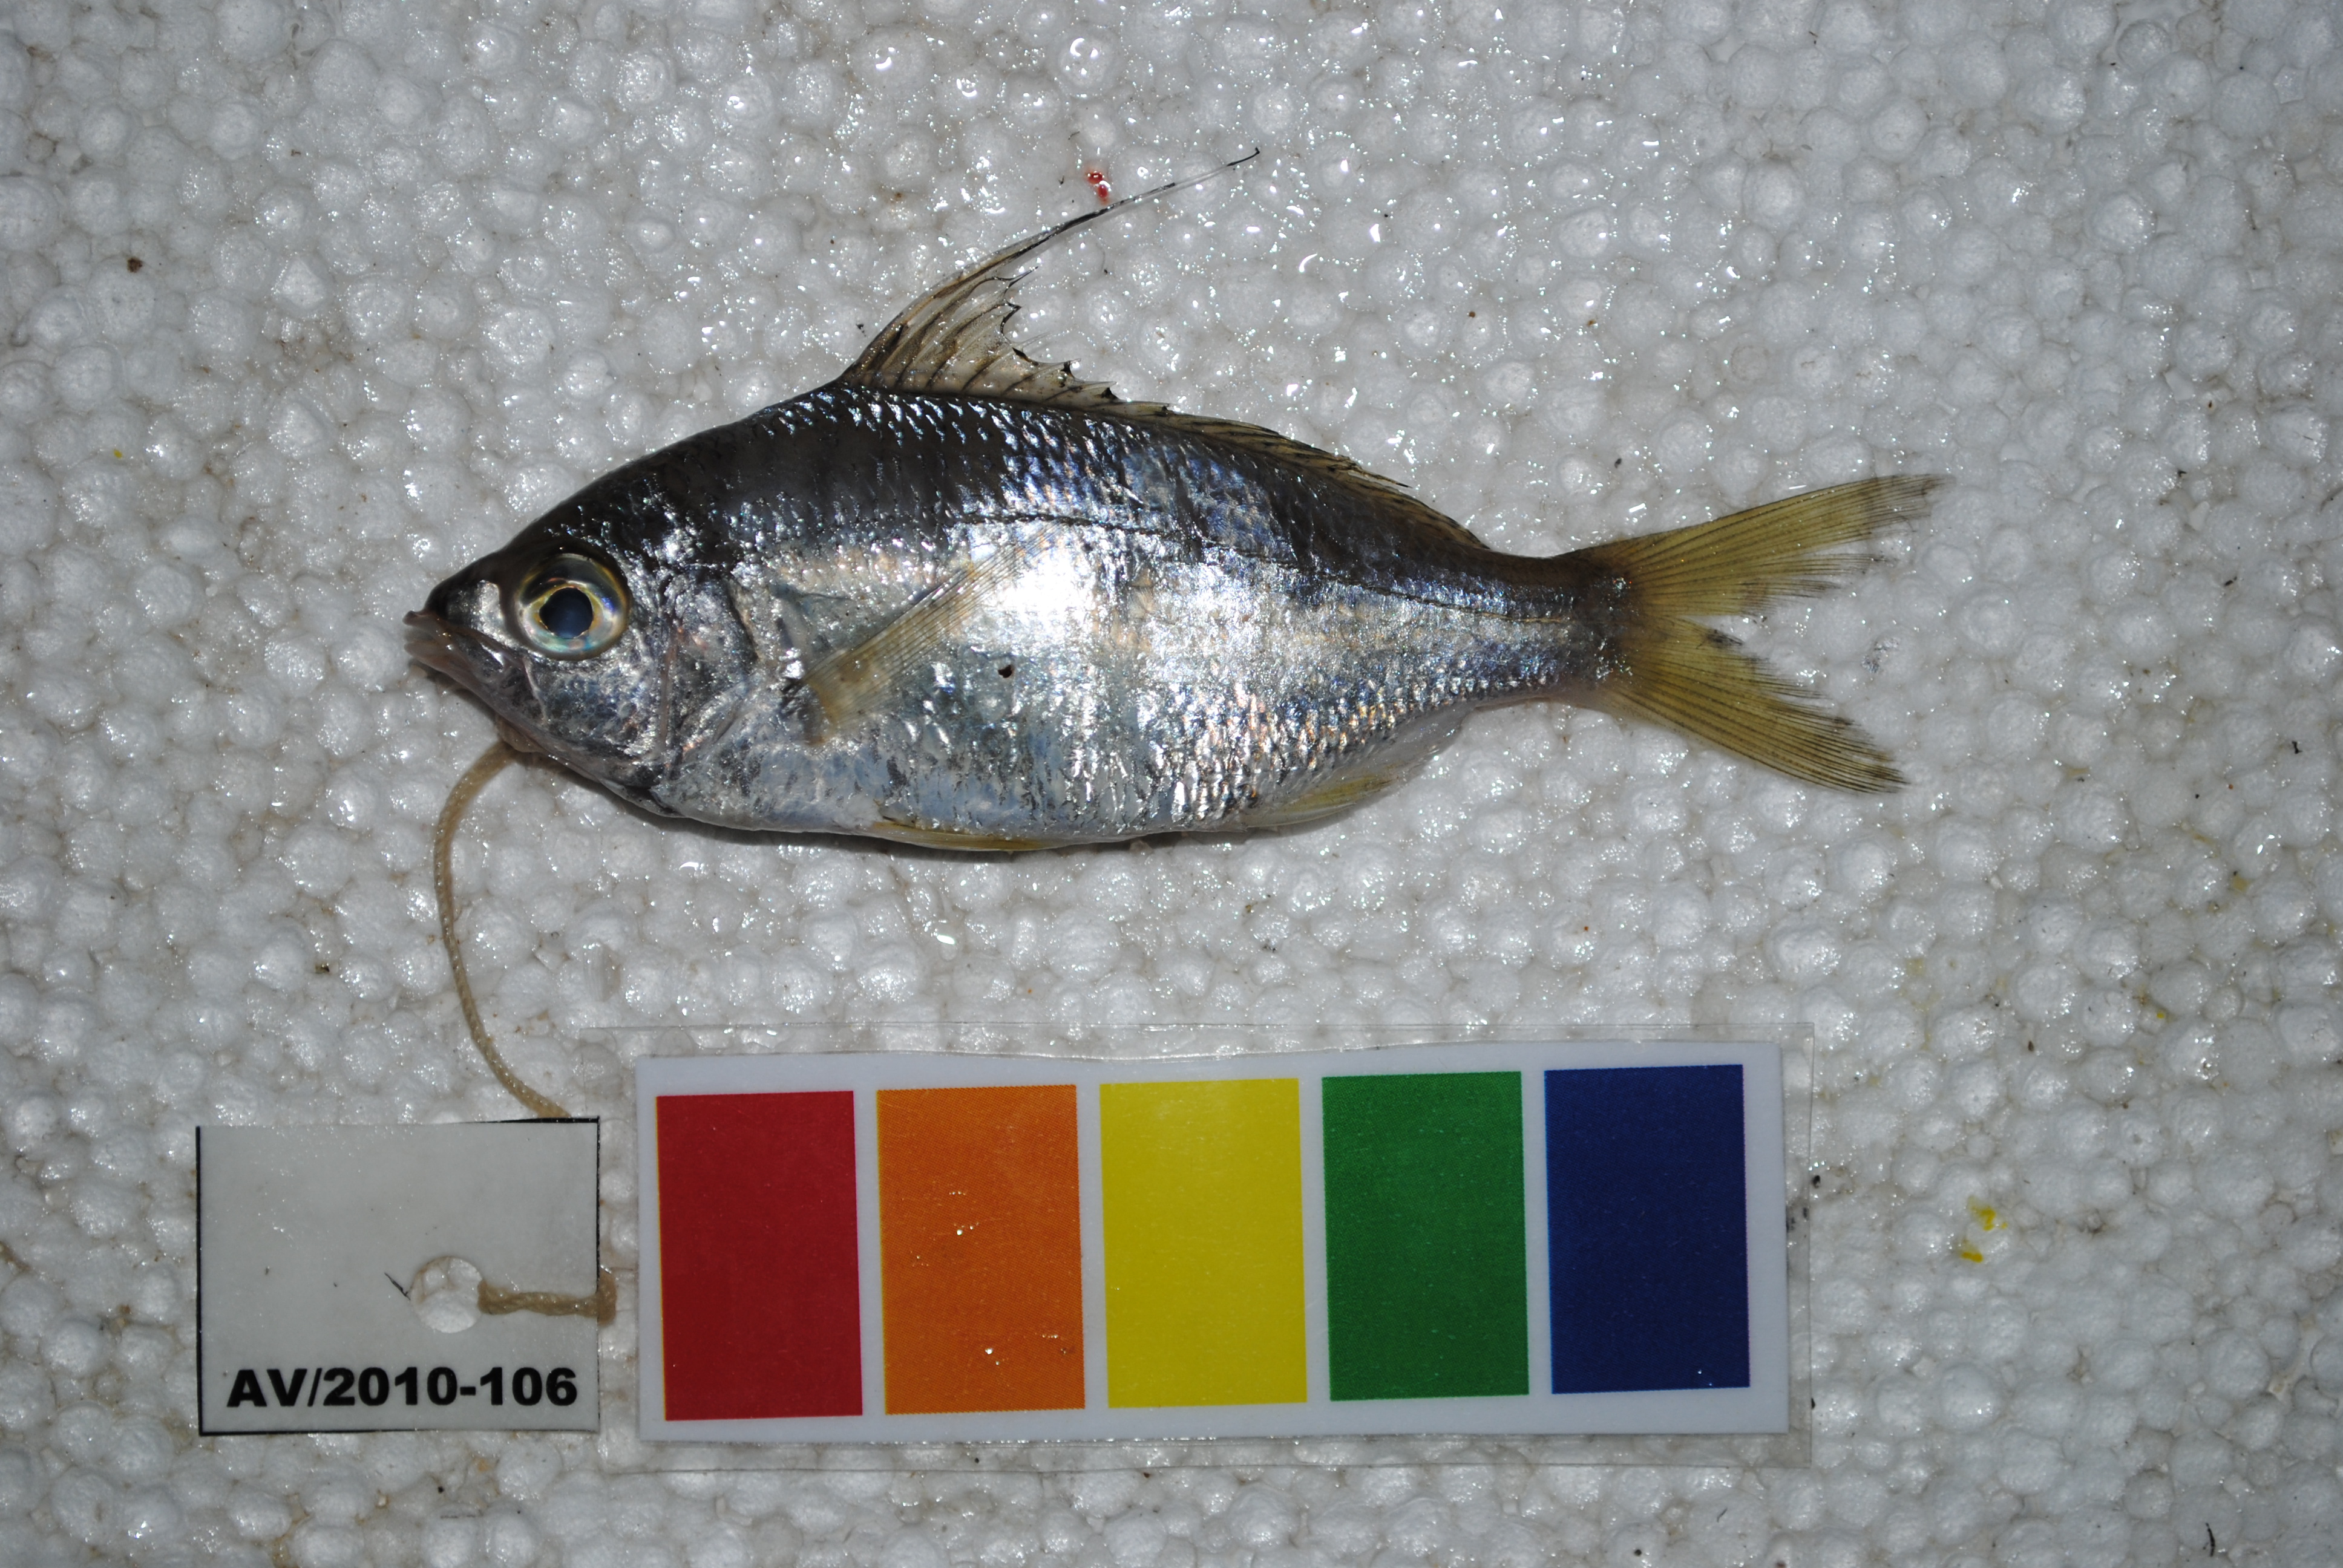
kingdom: Animalia
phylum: Chordata
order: Perciformes
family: Gerreidae
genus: Gerres
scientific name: Gerres macracanthus
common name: Long-rayed mojarra
